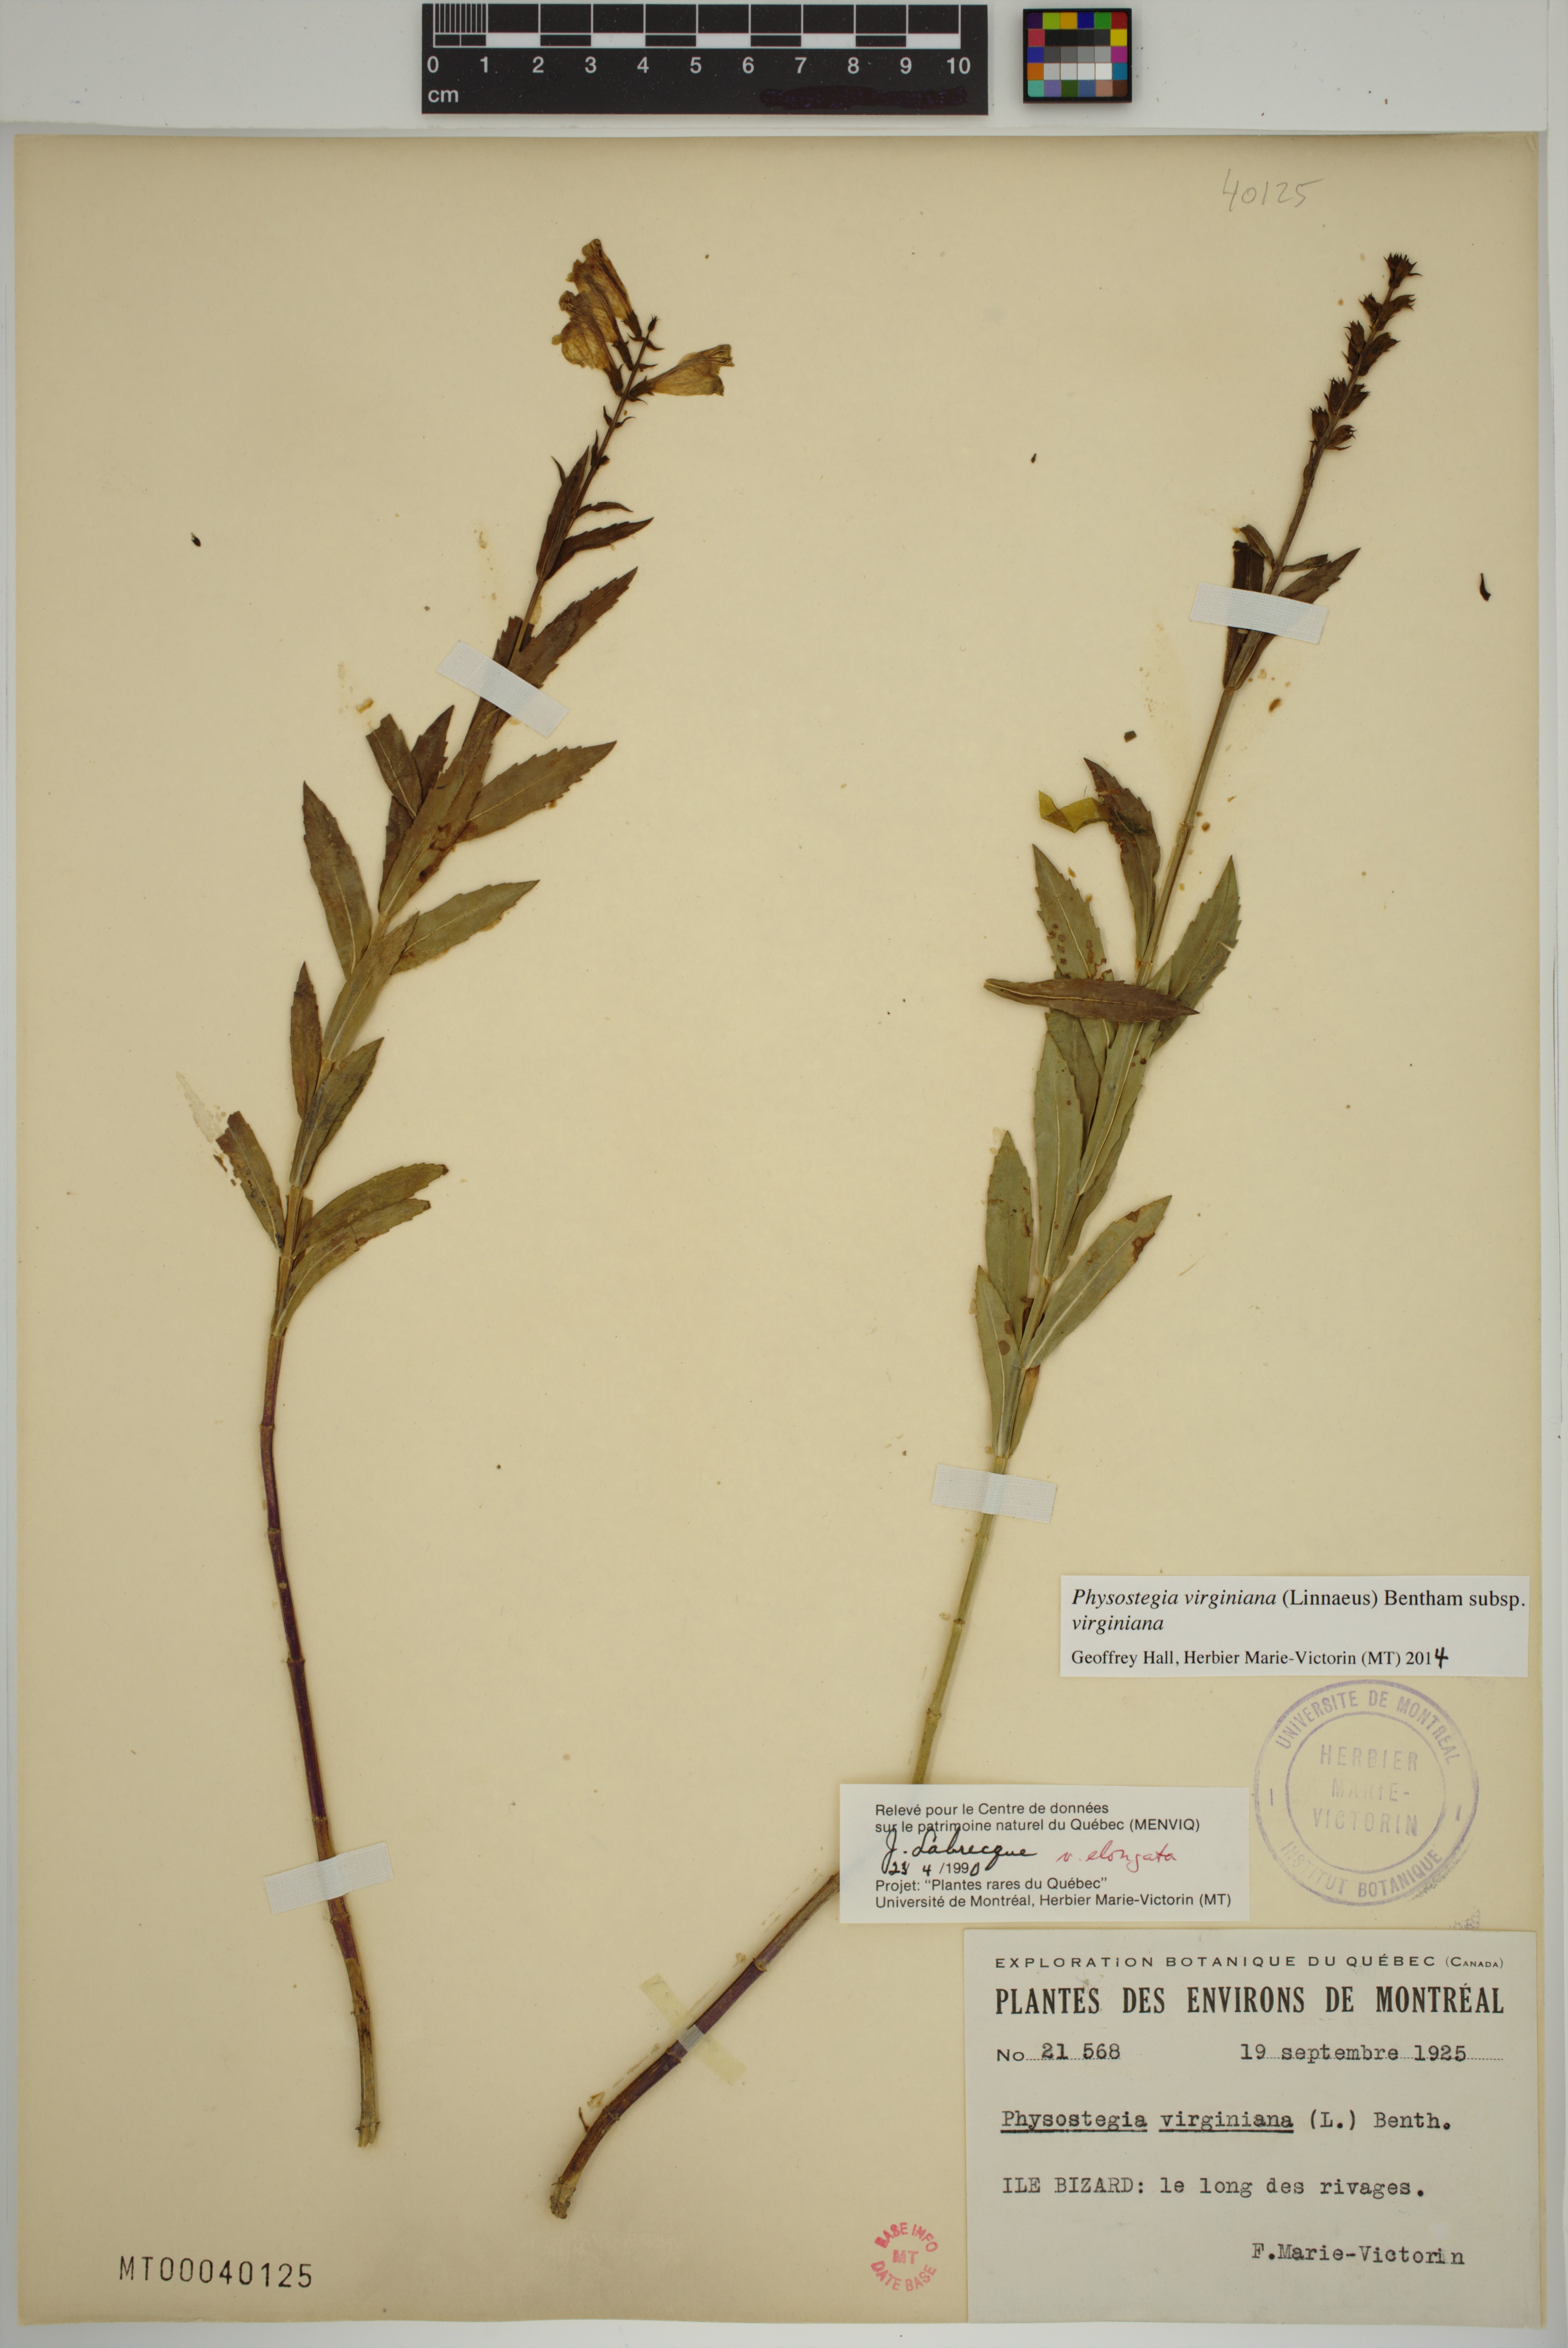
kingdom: Plantae
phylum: Tracheophyta
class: Magnoliopsida
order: Lamiales
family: Lamiaceae
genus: Physostegia
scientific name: Physostegia virginiana
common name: Obedient-plant
